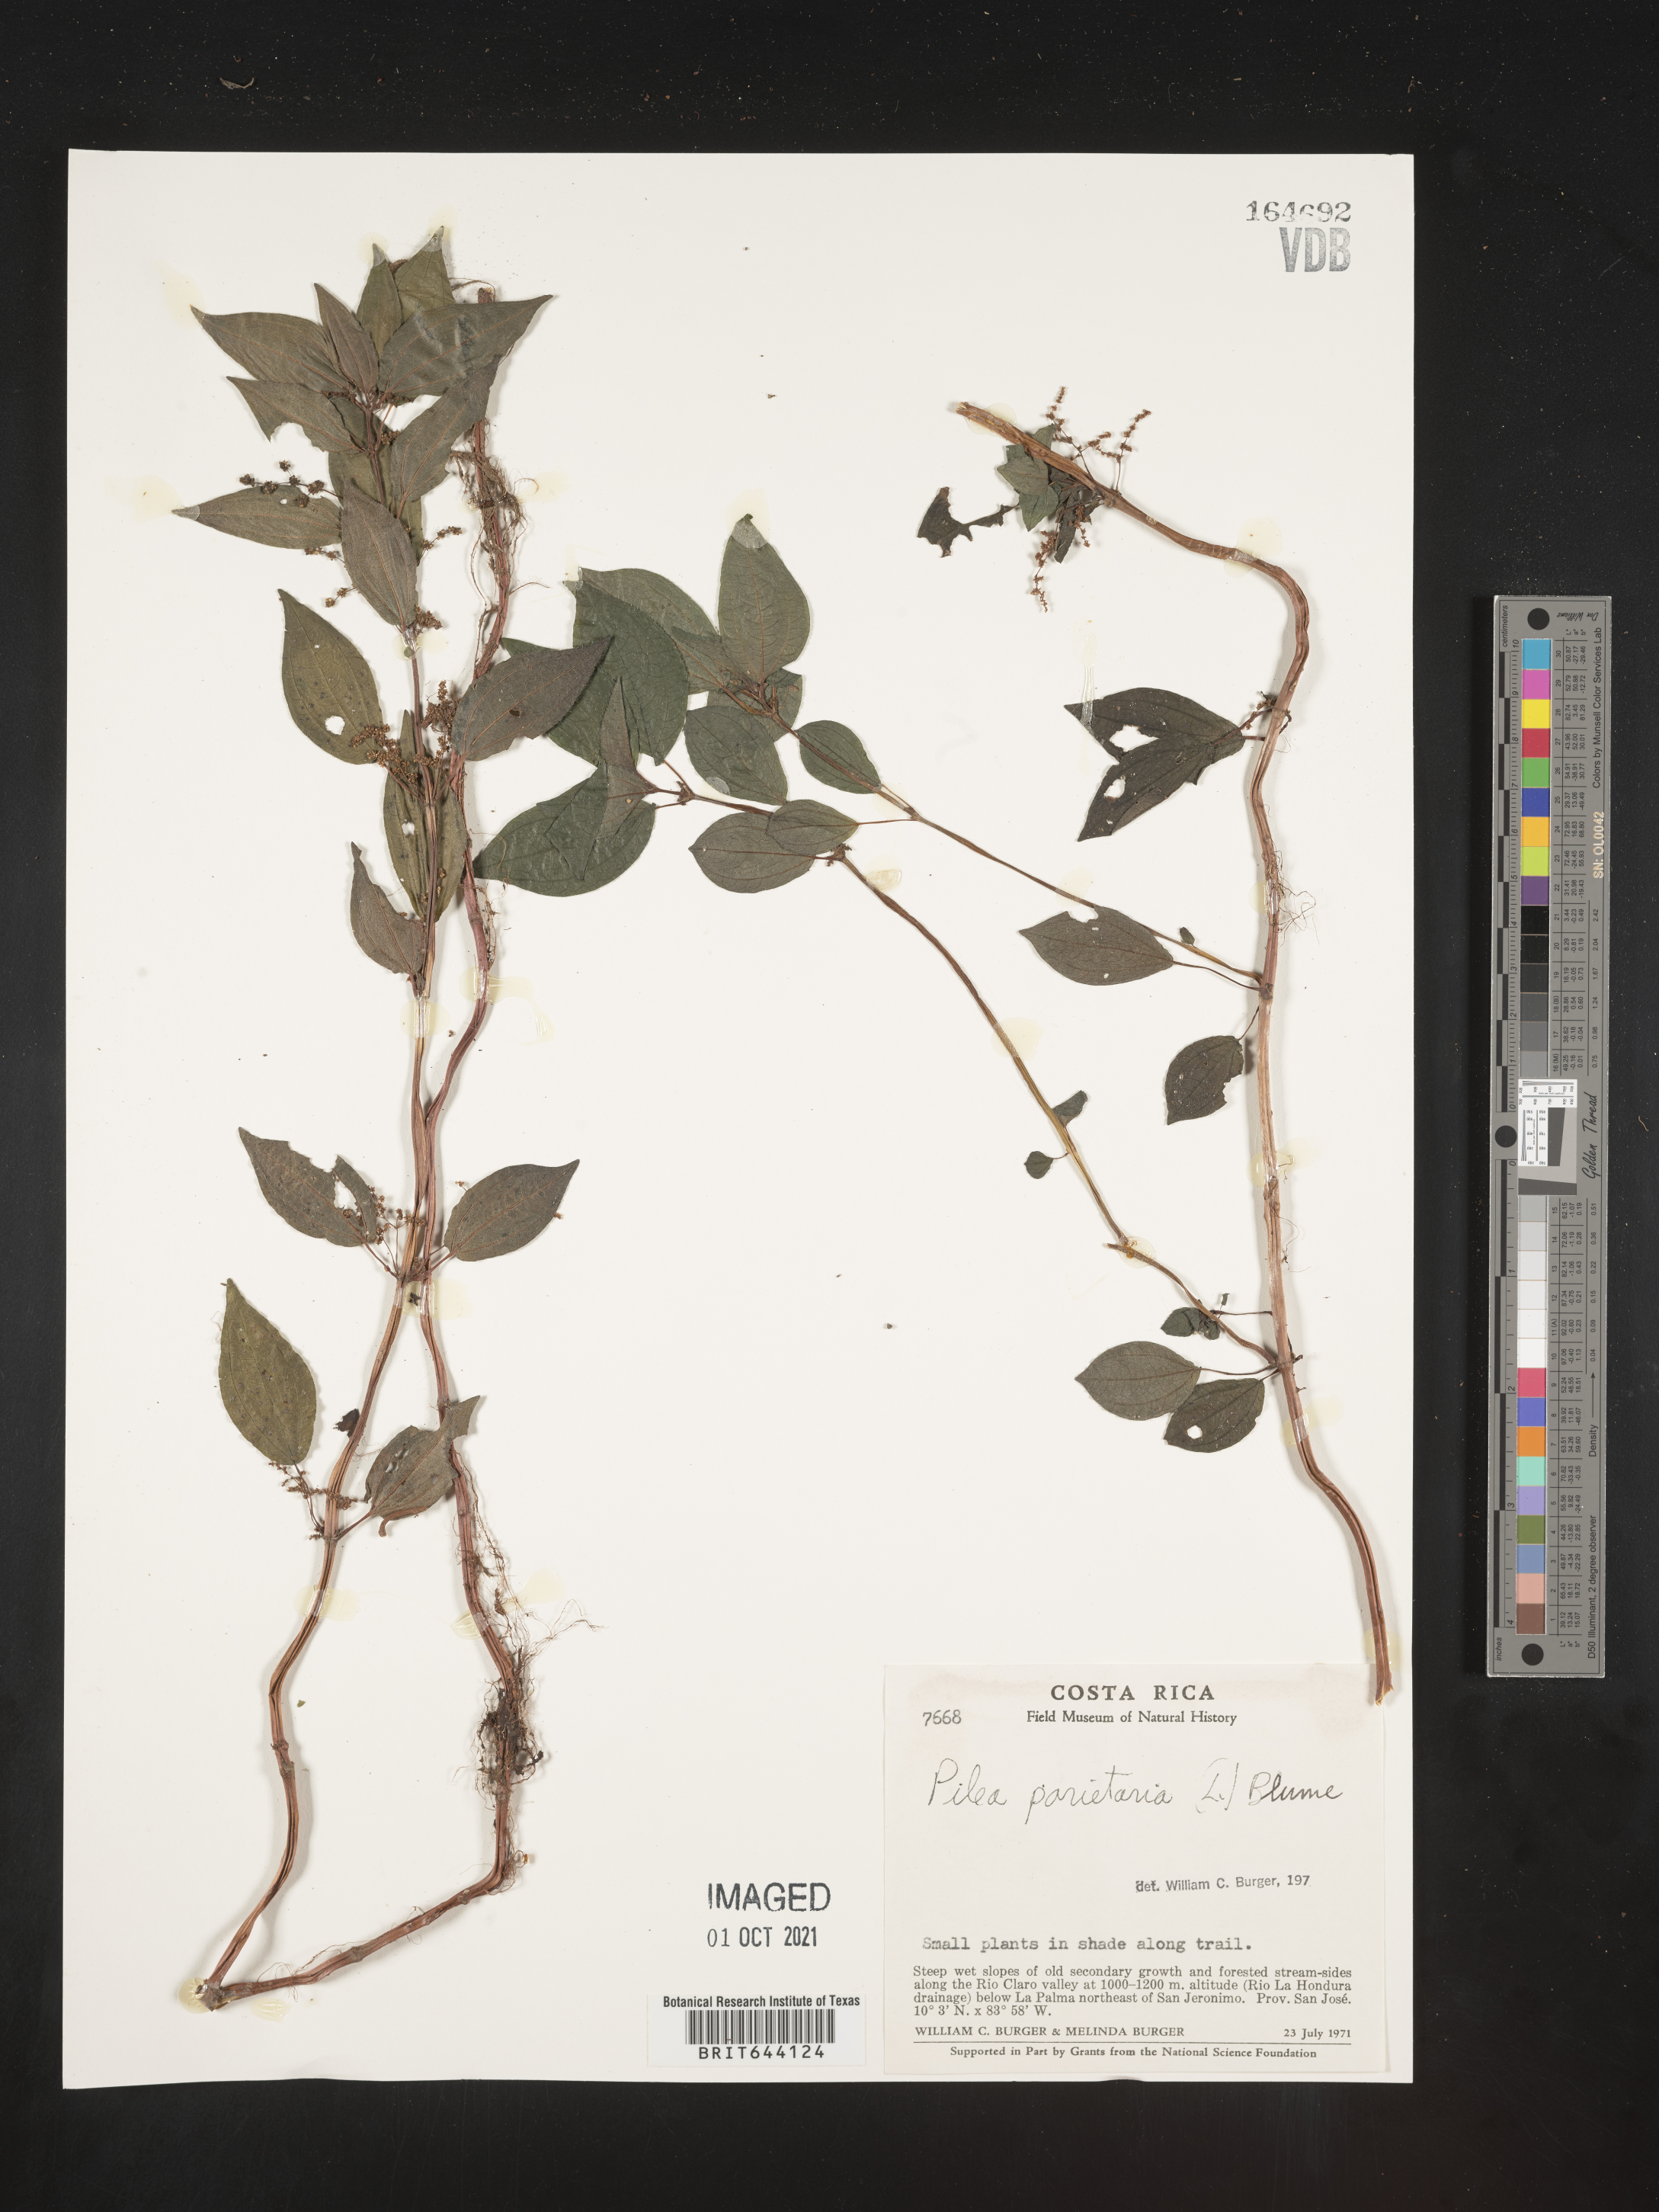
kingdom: Plantae
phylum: Tracheophyta
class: Magnoliopsida
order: Rosales
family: Urticaceae
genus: Pilea
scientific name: Pilea
